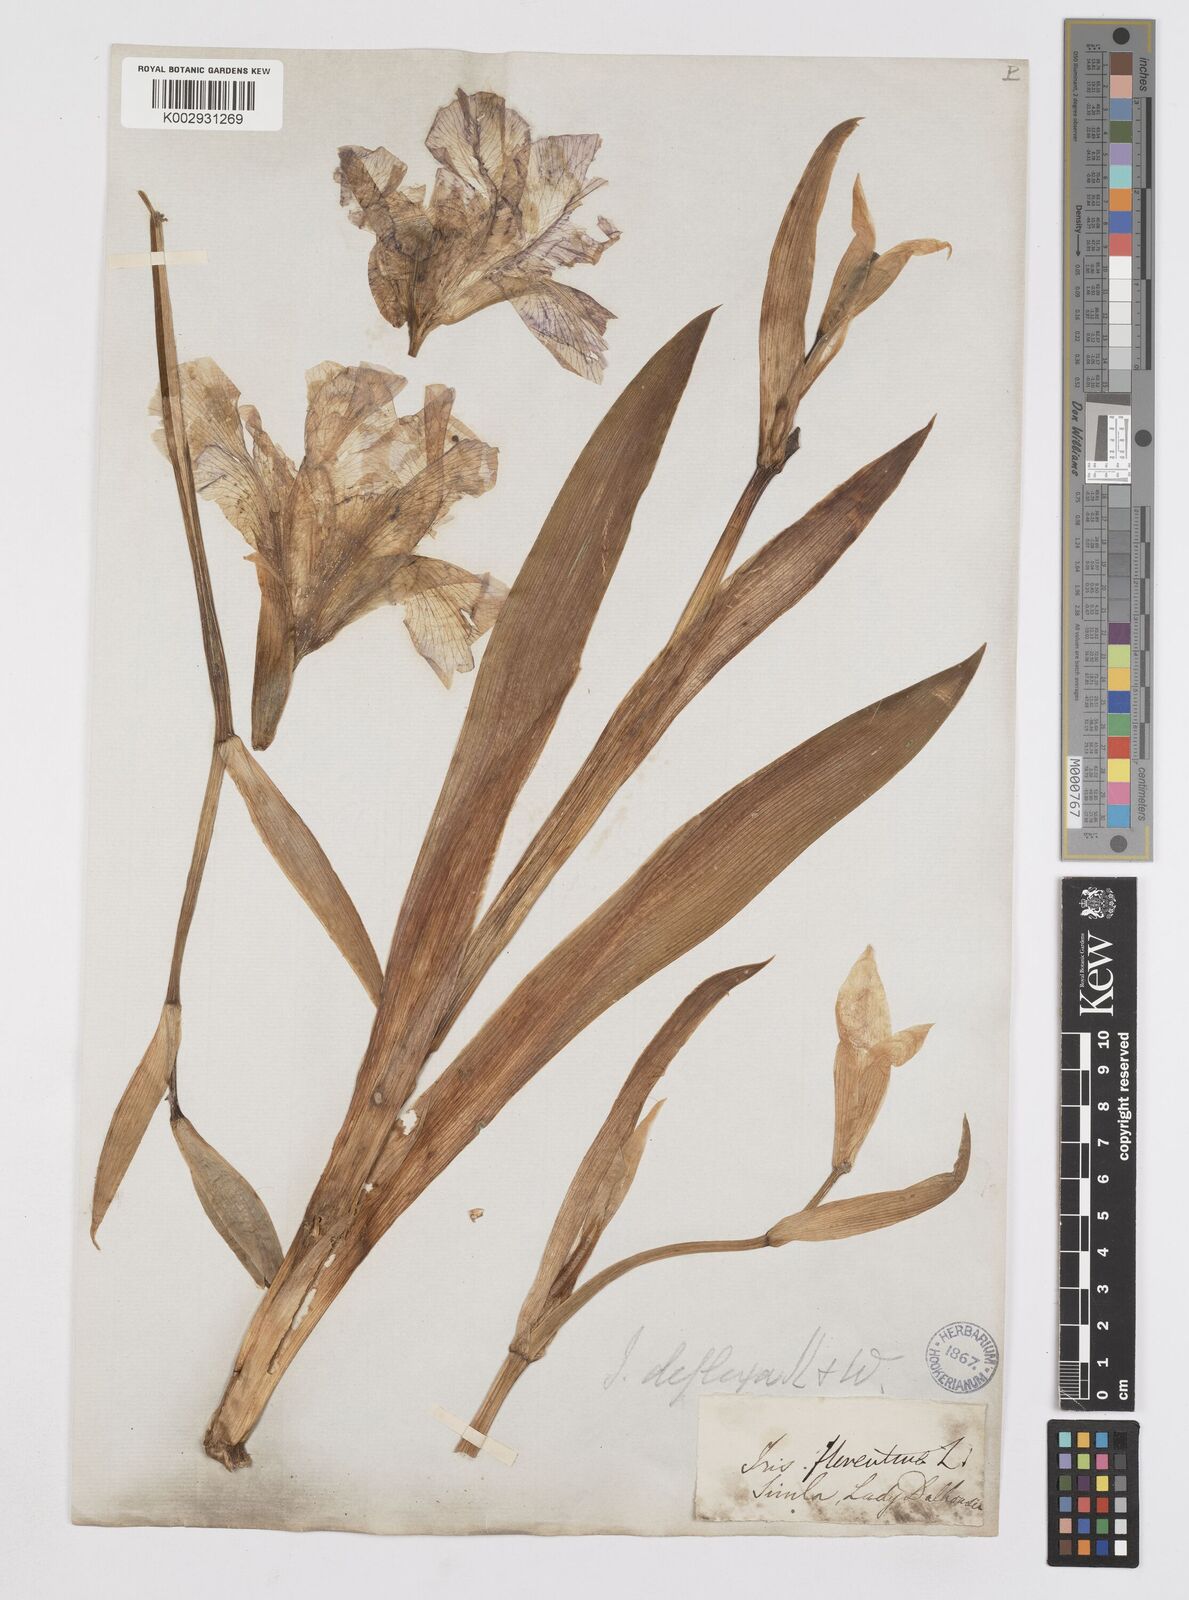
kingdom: Plantae
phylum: Tracheophyta
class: Liliopsida
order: Asparagales
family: Iridaceae
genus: Iris
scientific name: Iris germanica
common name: German iris
